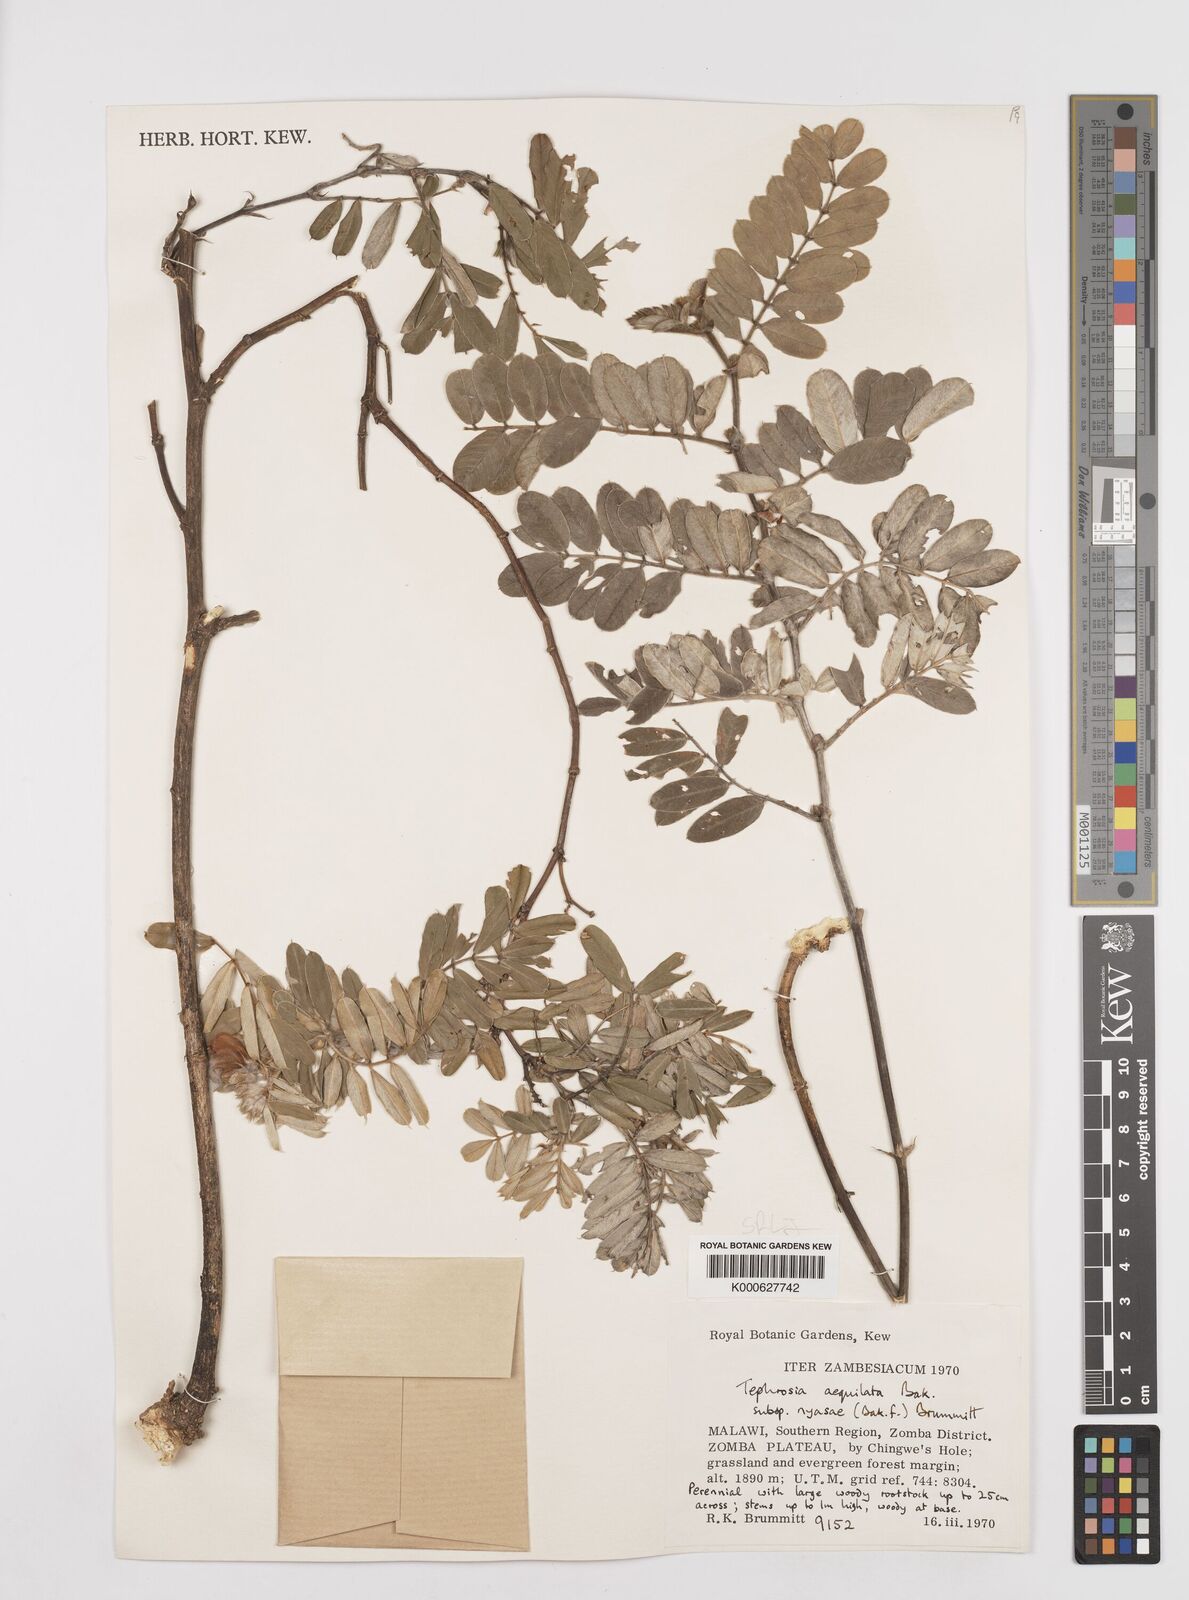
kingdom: Plantae
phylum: Tracheophyta
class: Magnoliopsida
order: Fabales
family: Fabaceae
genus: Tephrosia
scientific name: Tephrosia
